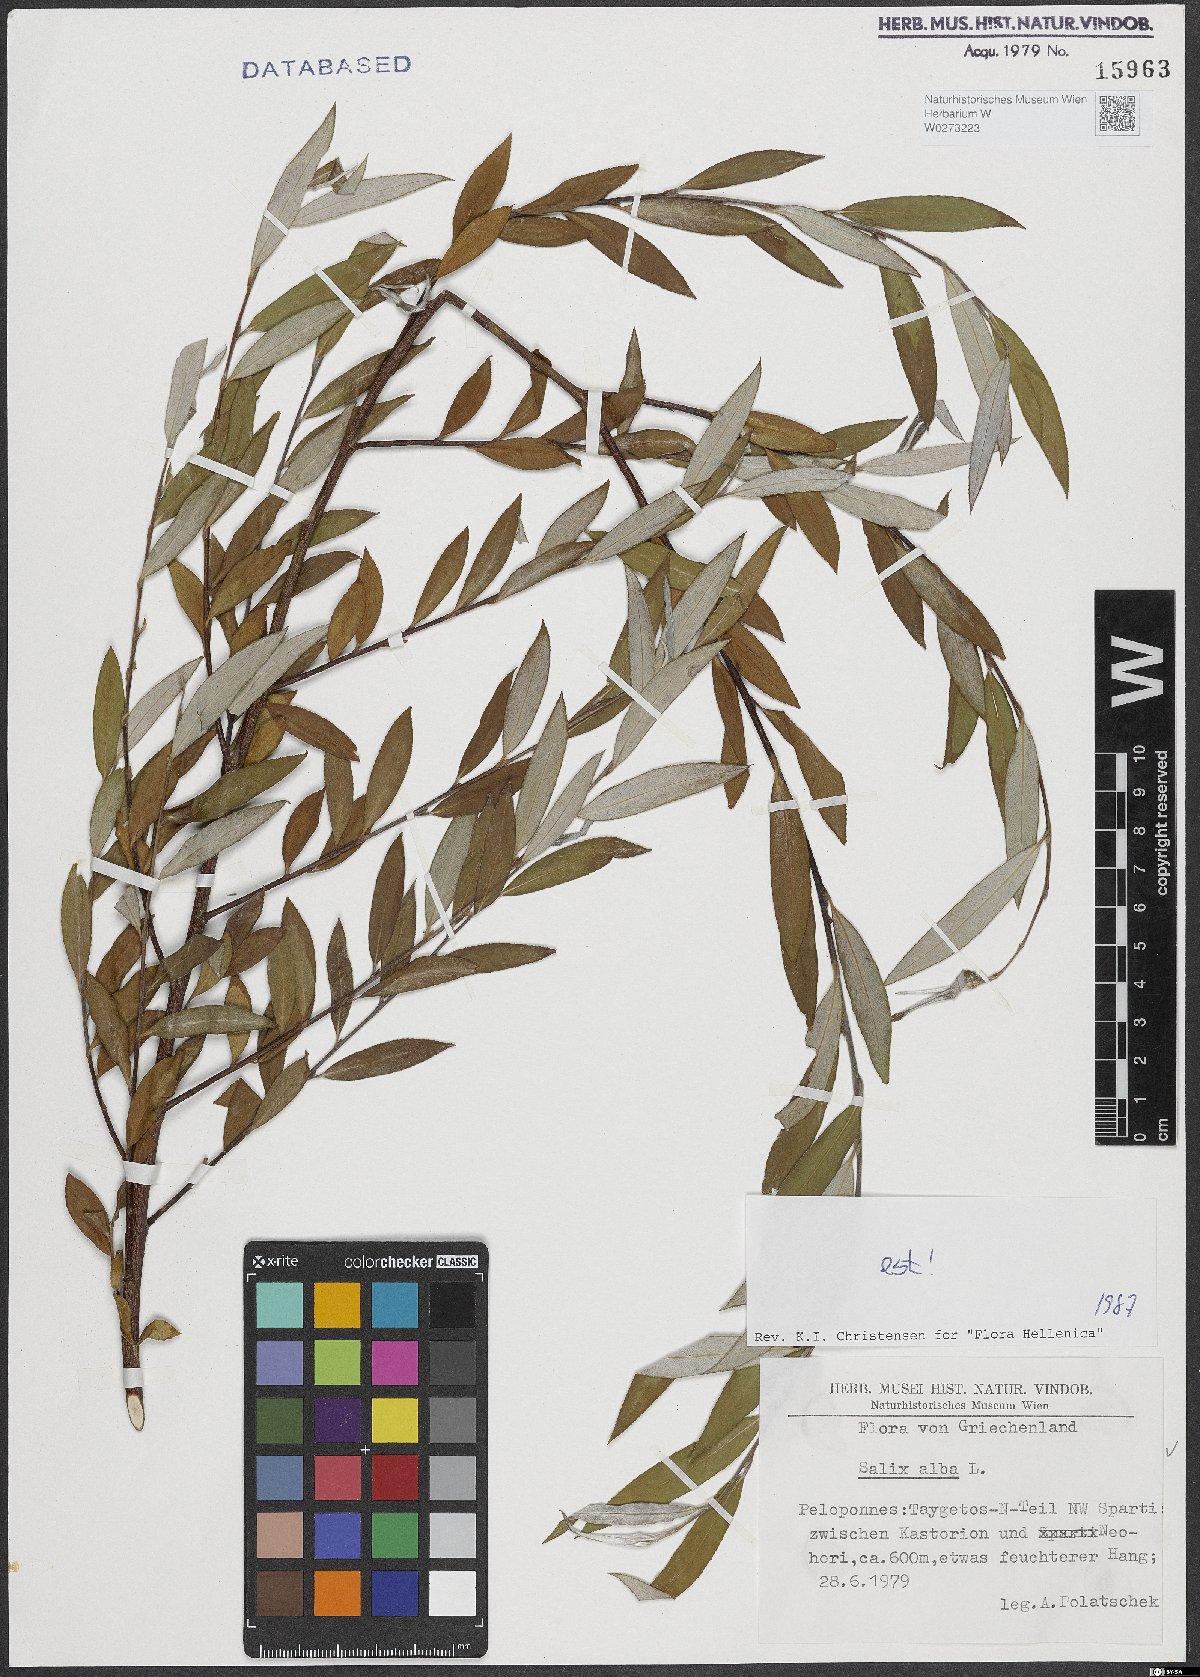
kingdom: Plantae
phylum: Tracheophyta
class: Magnoliopsida
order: Malpighiales
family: Salicaceae
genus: Salix
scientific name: Salix alba
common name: White willow
